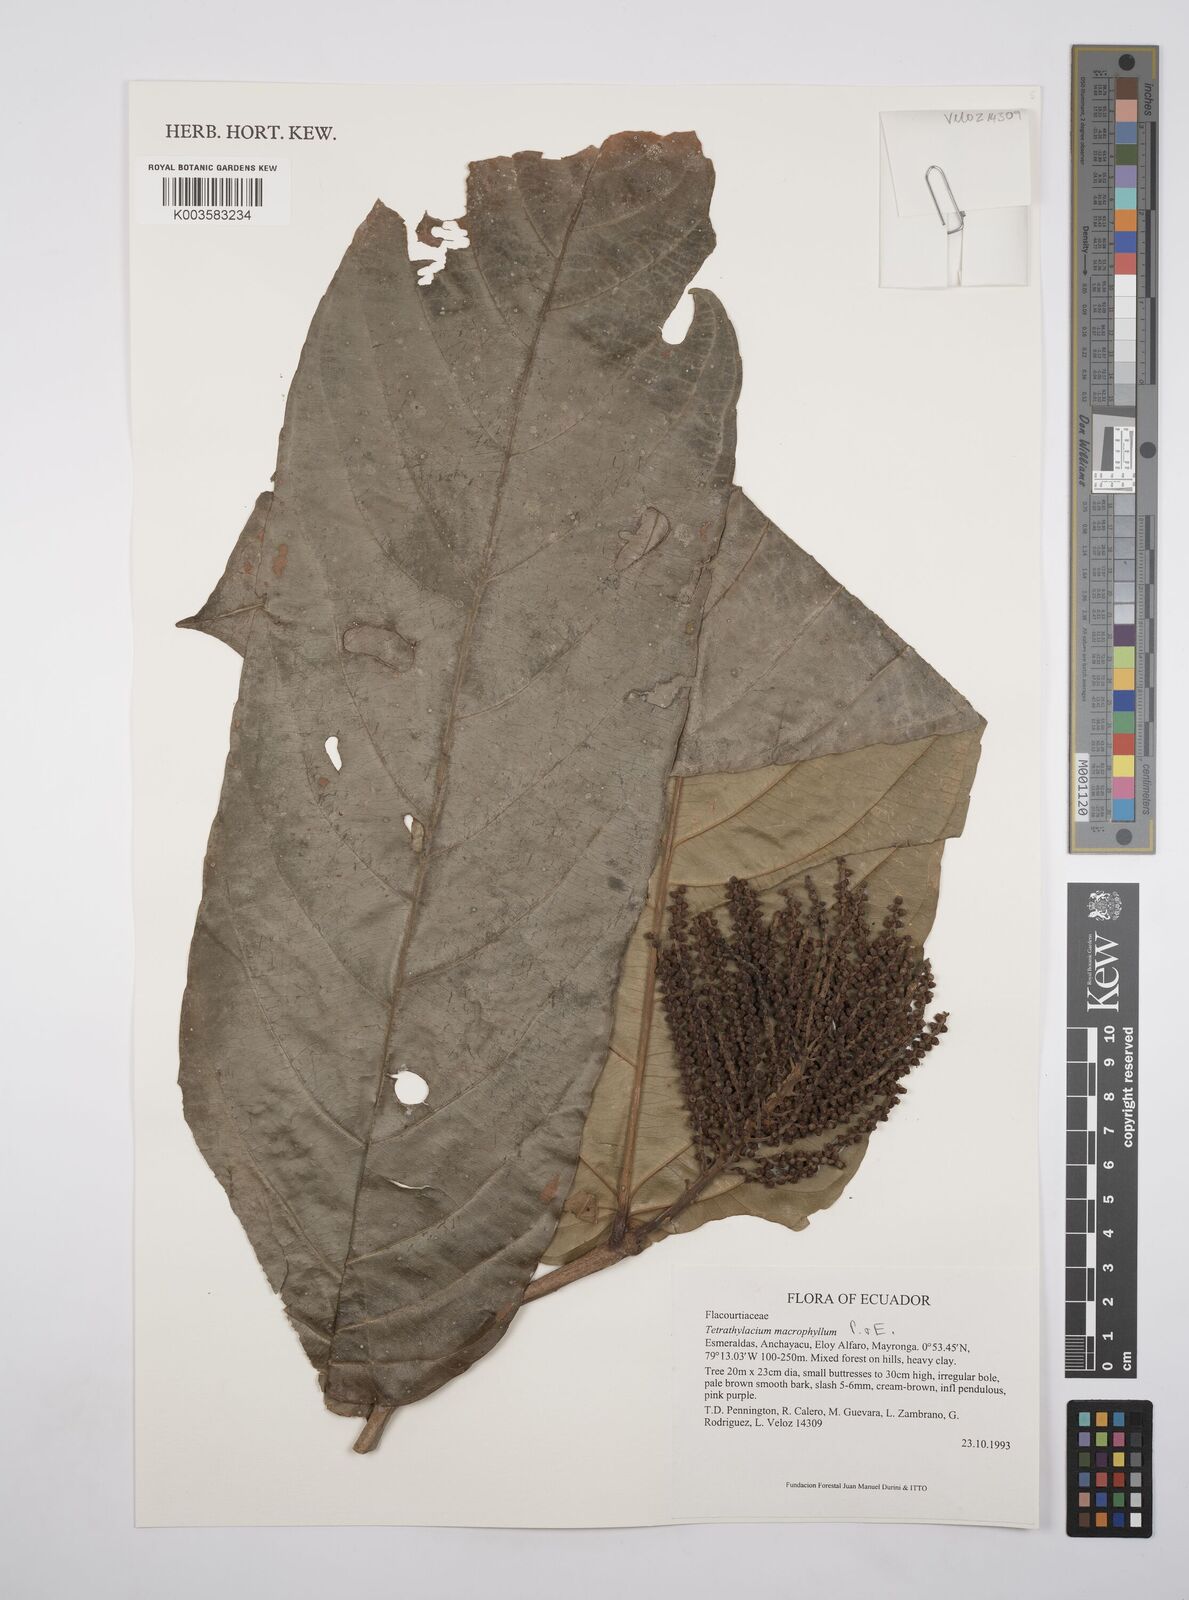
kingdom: Plantae
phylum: Tracheophyta
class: Magnoliopsida
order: Malpighiales
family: Salicaceae
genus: Tetrathylacium
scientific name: Tetrathylacium macrophyllum
